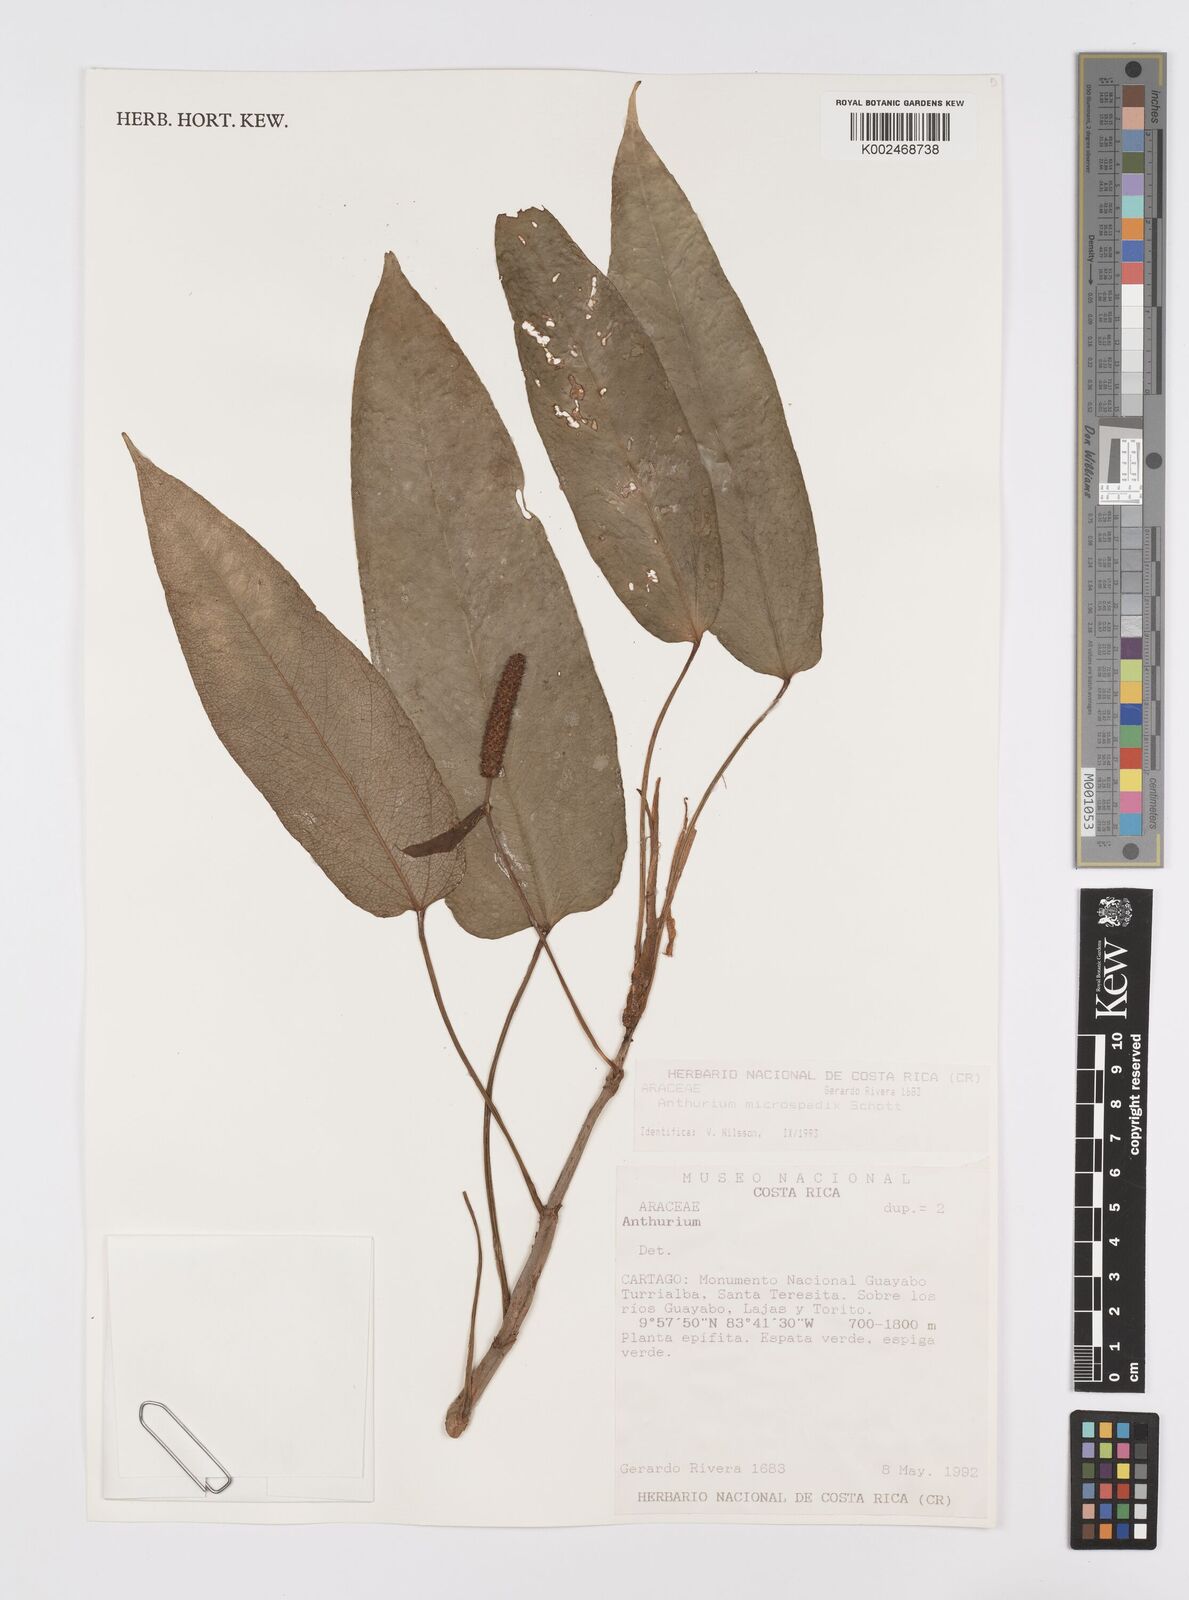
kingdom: Plantae
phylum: Tracheophyta
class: Liliopsida
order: Alismatales
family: Araceae
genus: Anthurium
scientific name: Anthurium microspadix
